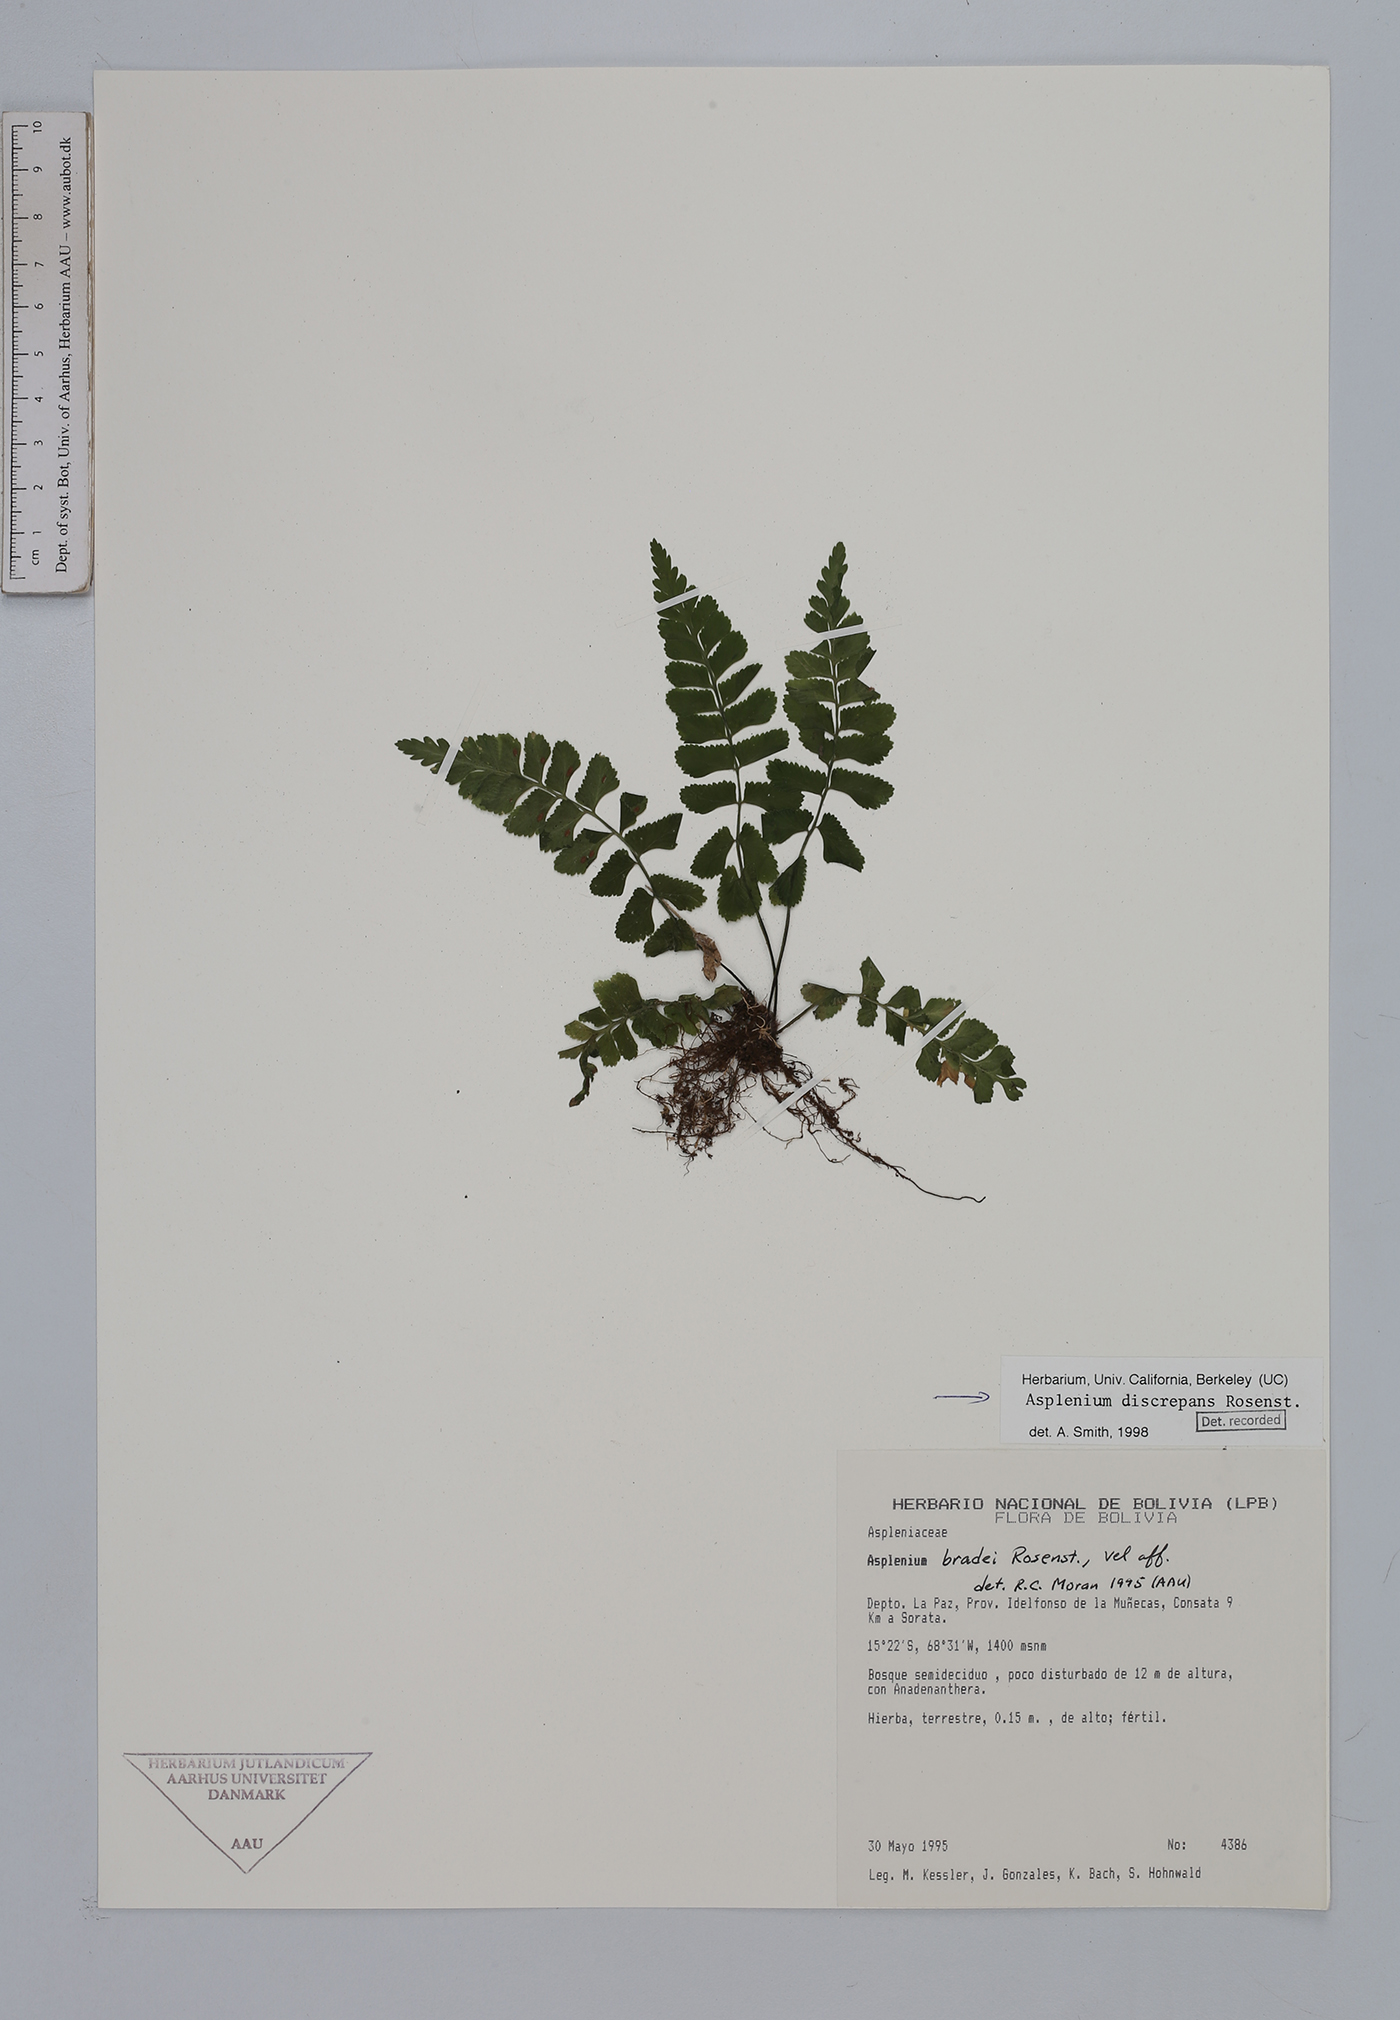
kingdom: Plantae
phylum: Tracheophyta
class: Polypodiopsida
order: Polypodiales
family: Aspleniaceae
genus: Asplenium
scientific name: Asplenium discrepans
